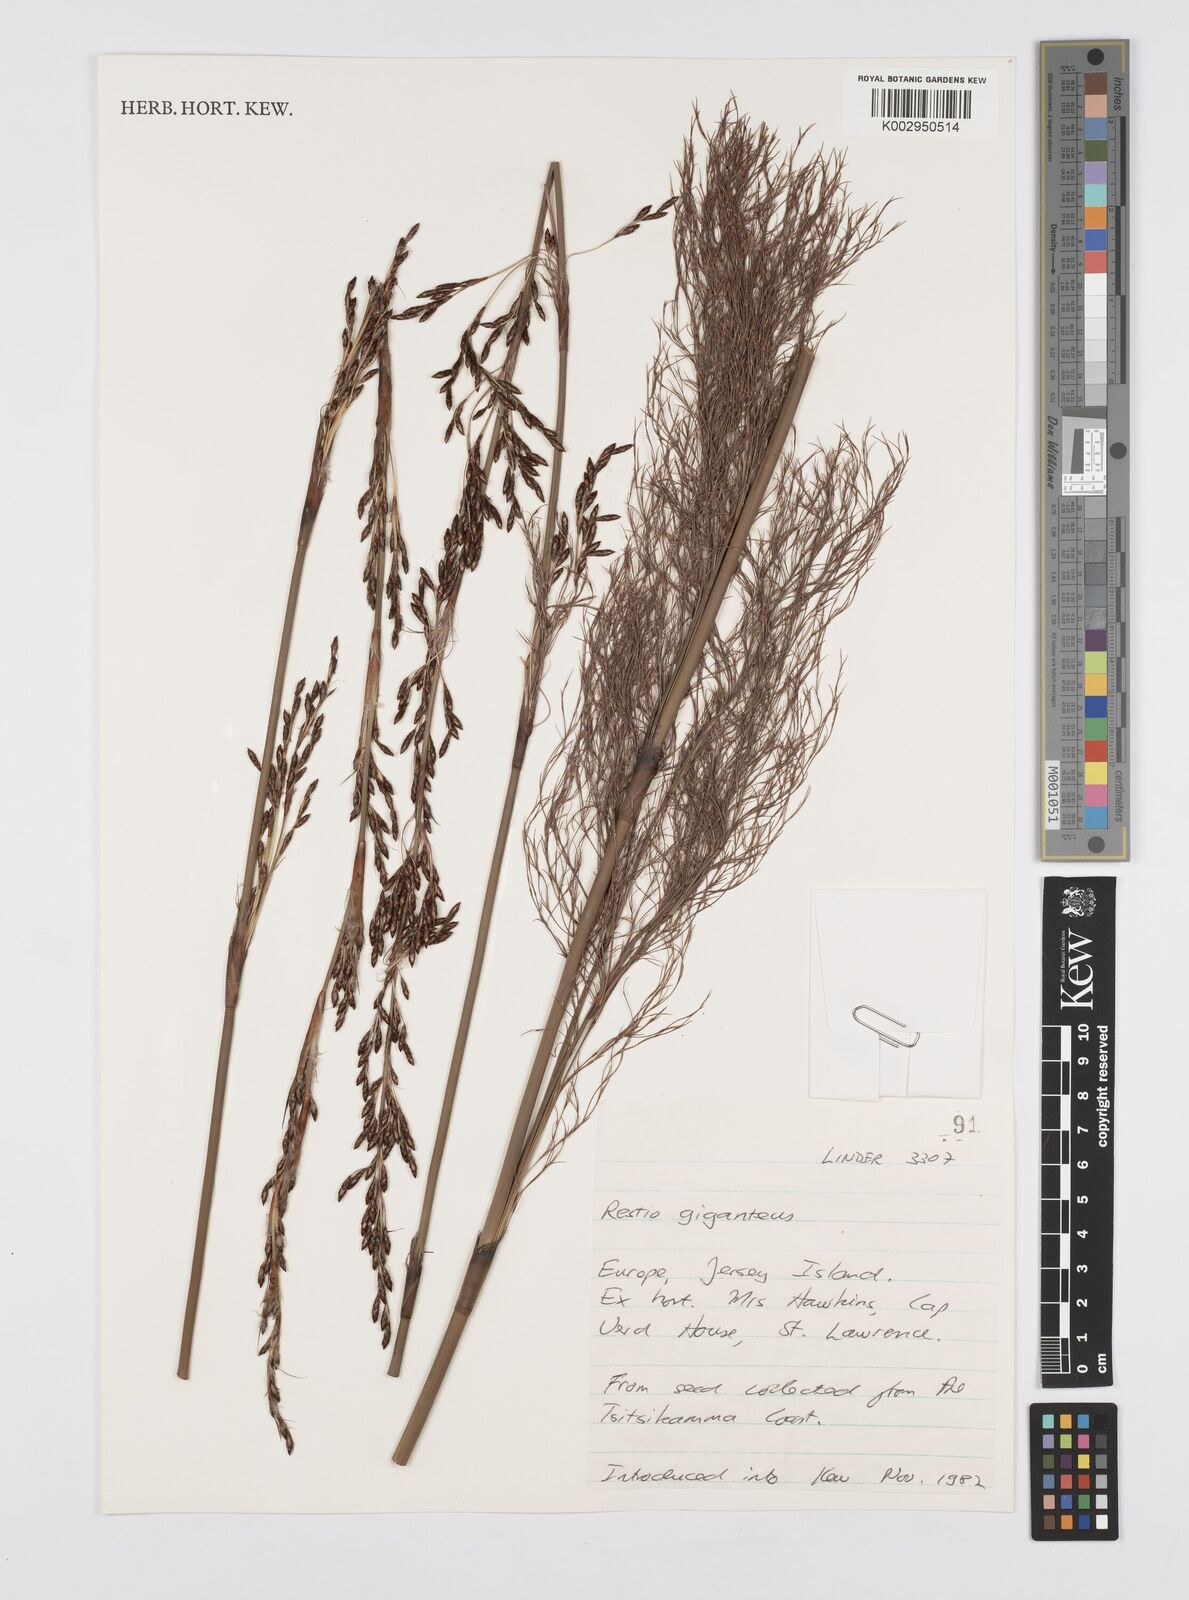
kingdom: Plantae
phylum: Tracheophyta
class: Liliopsida
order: Poales
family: Restionaceae
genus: Rhodocoma
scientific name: Rhodocoma gigantea
